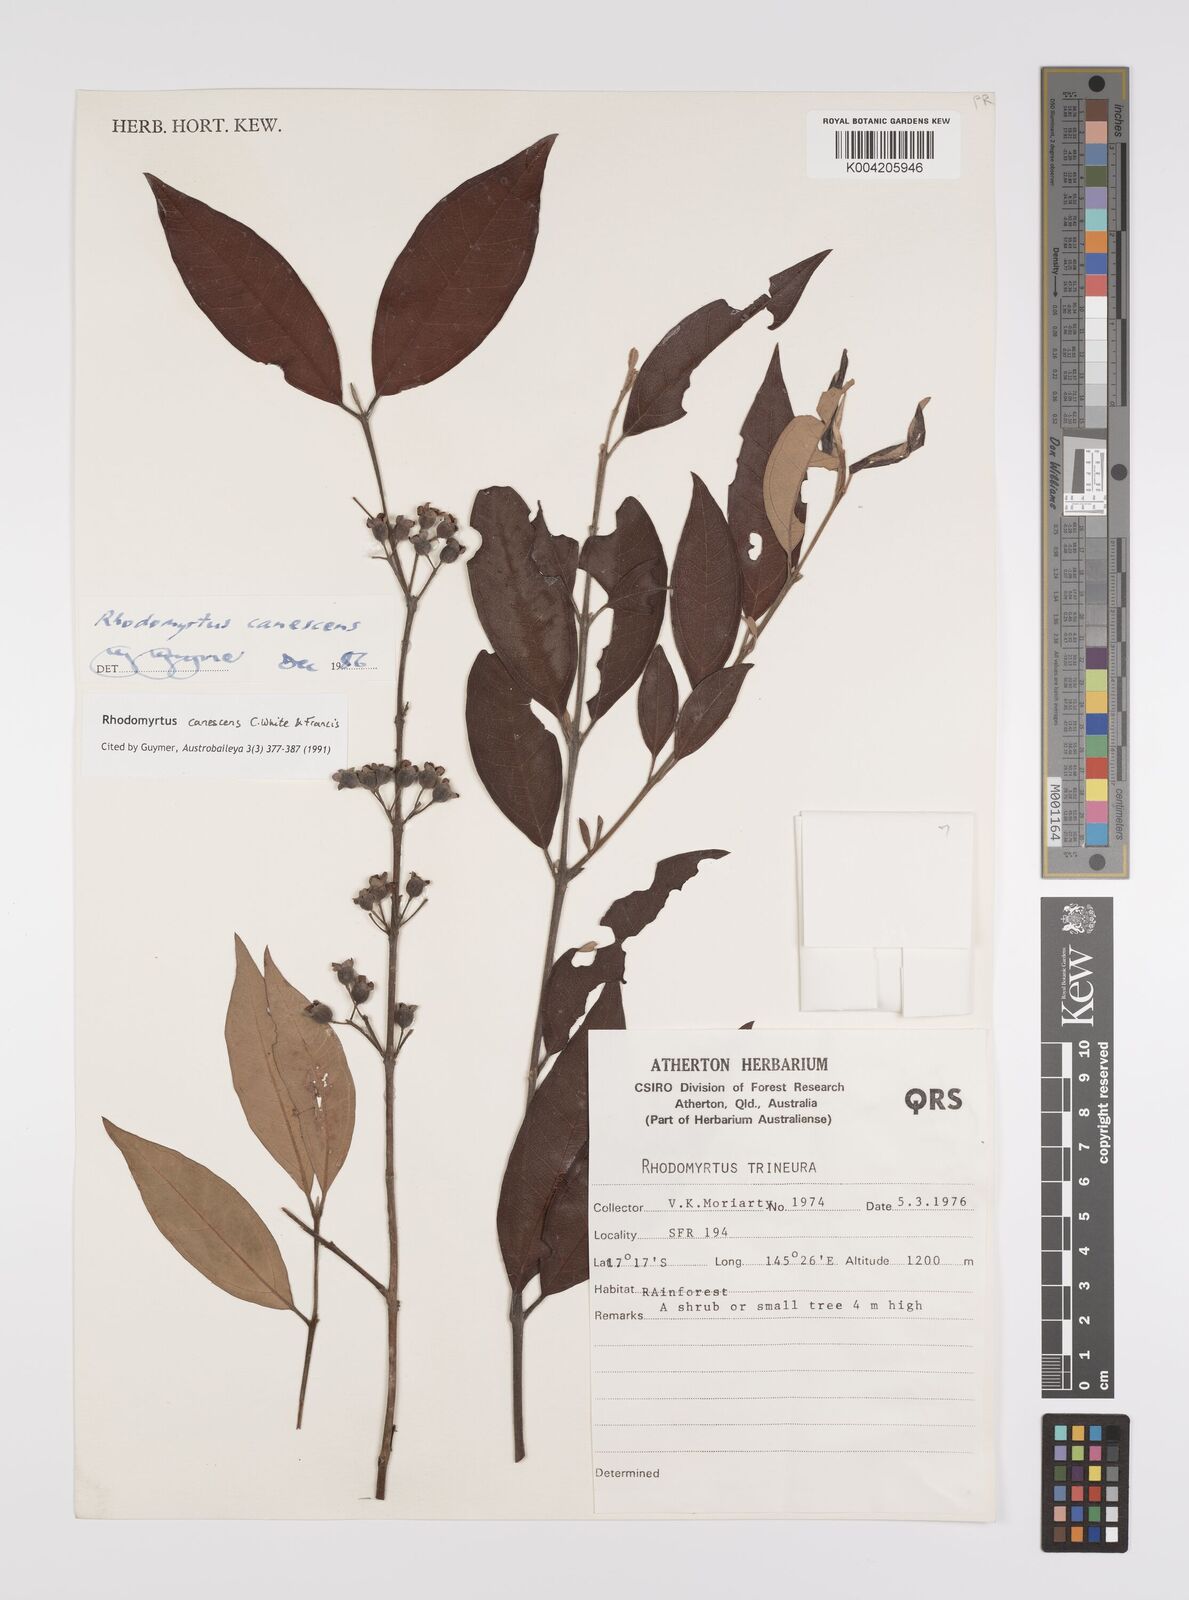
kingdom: Plantae
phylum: Tracheophyta
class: Magnoliopsida
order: Myrtales
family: Myrtaceae
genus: Rhodomyrtus
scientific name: Rhodomyrtus trineura
